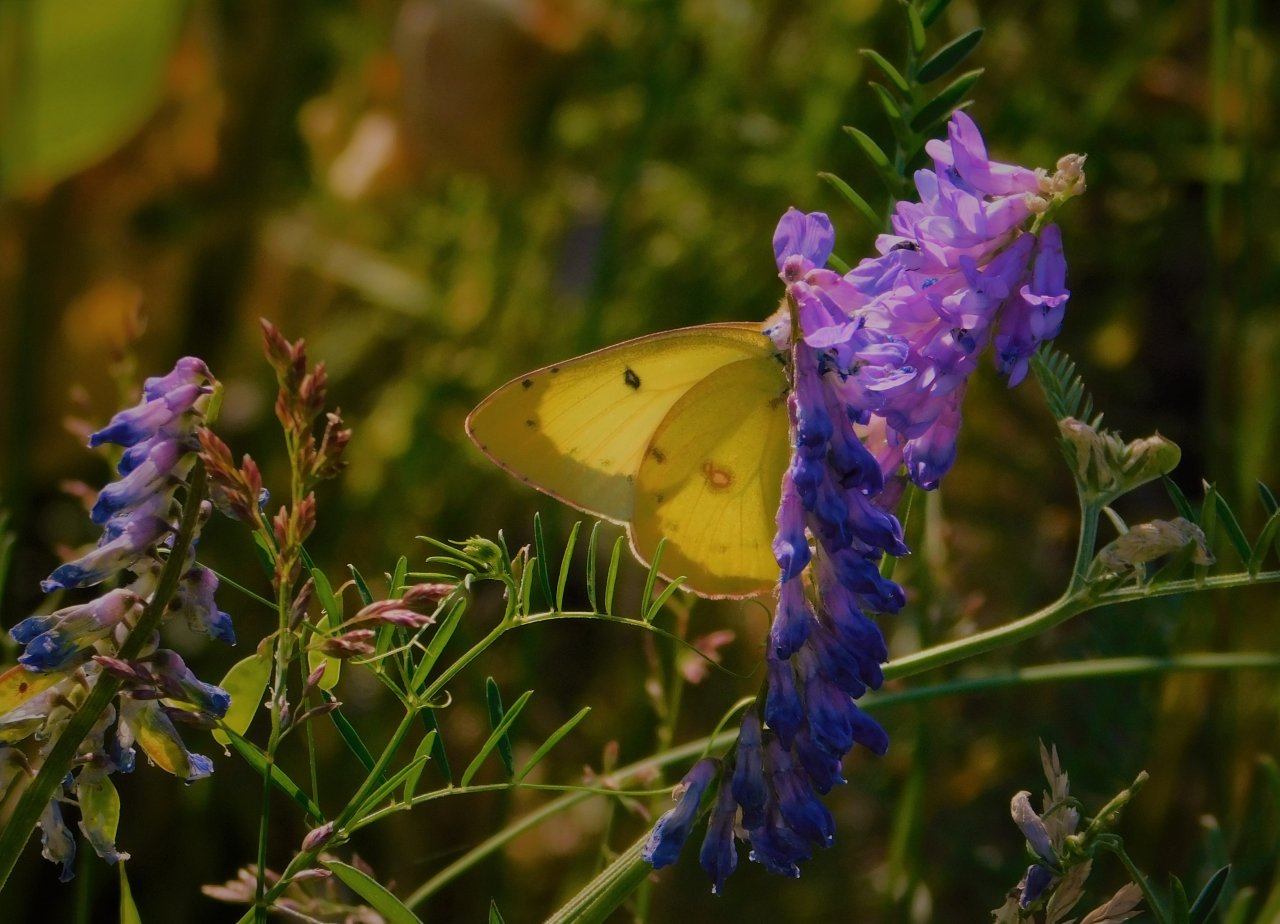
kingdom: Animalia
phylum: Arthropoda
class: Insecta
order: Lepidoptera
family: Pieridae
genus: Colias
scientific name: Colias philodice
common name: Clouded Sulphur
